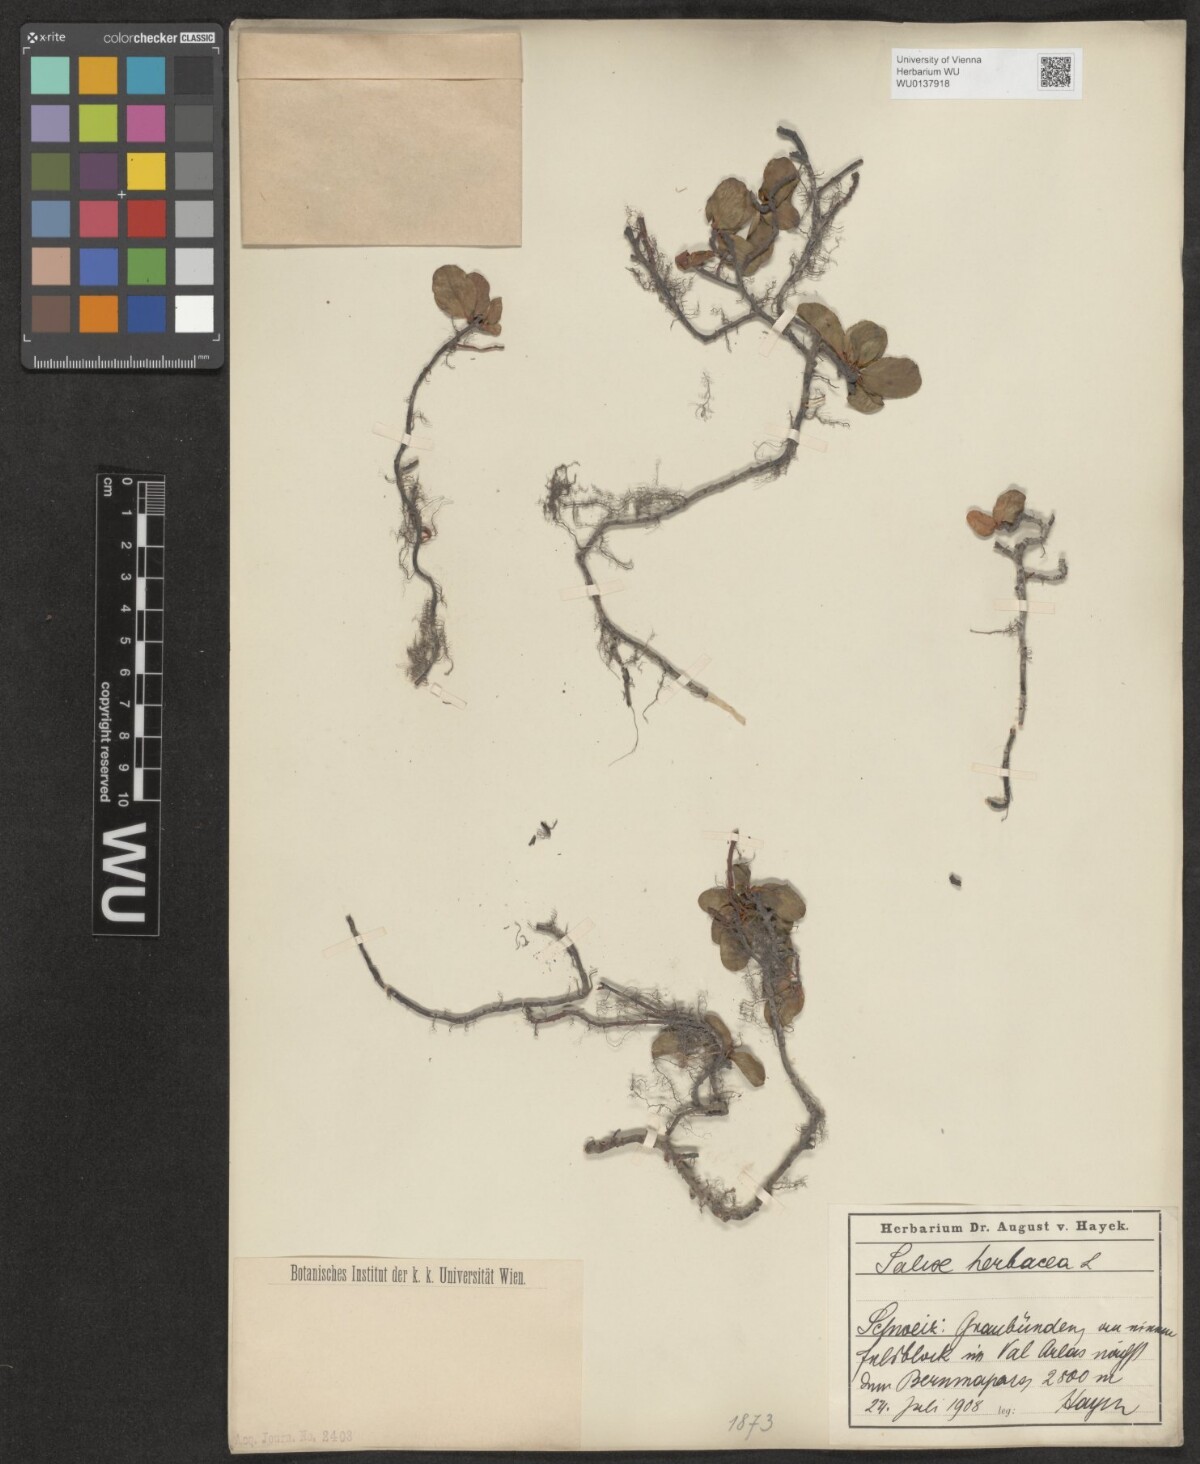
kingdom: Plantae
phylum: Tracheophyta
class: Magnoliopsida
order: Malpighiales
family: Salicaceae
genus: Salix
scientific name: Salix herbacea
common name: Dwarf willow
